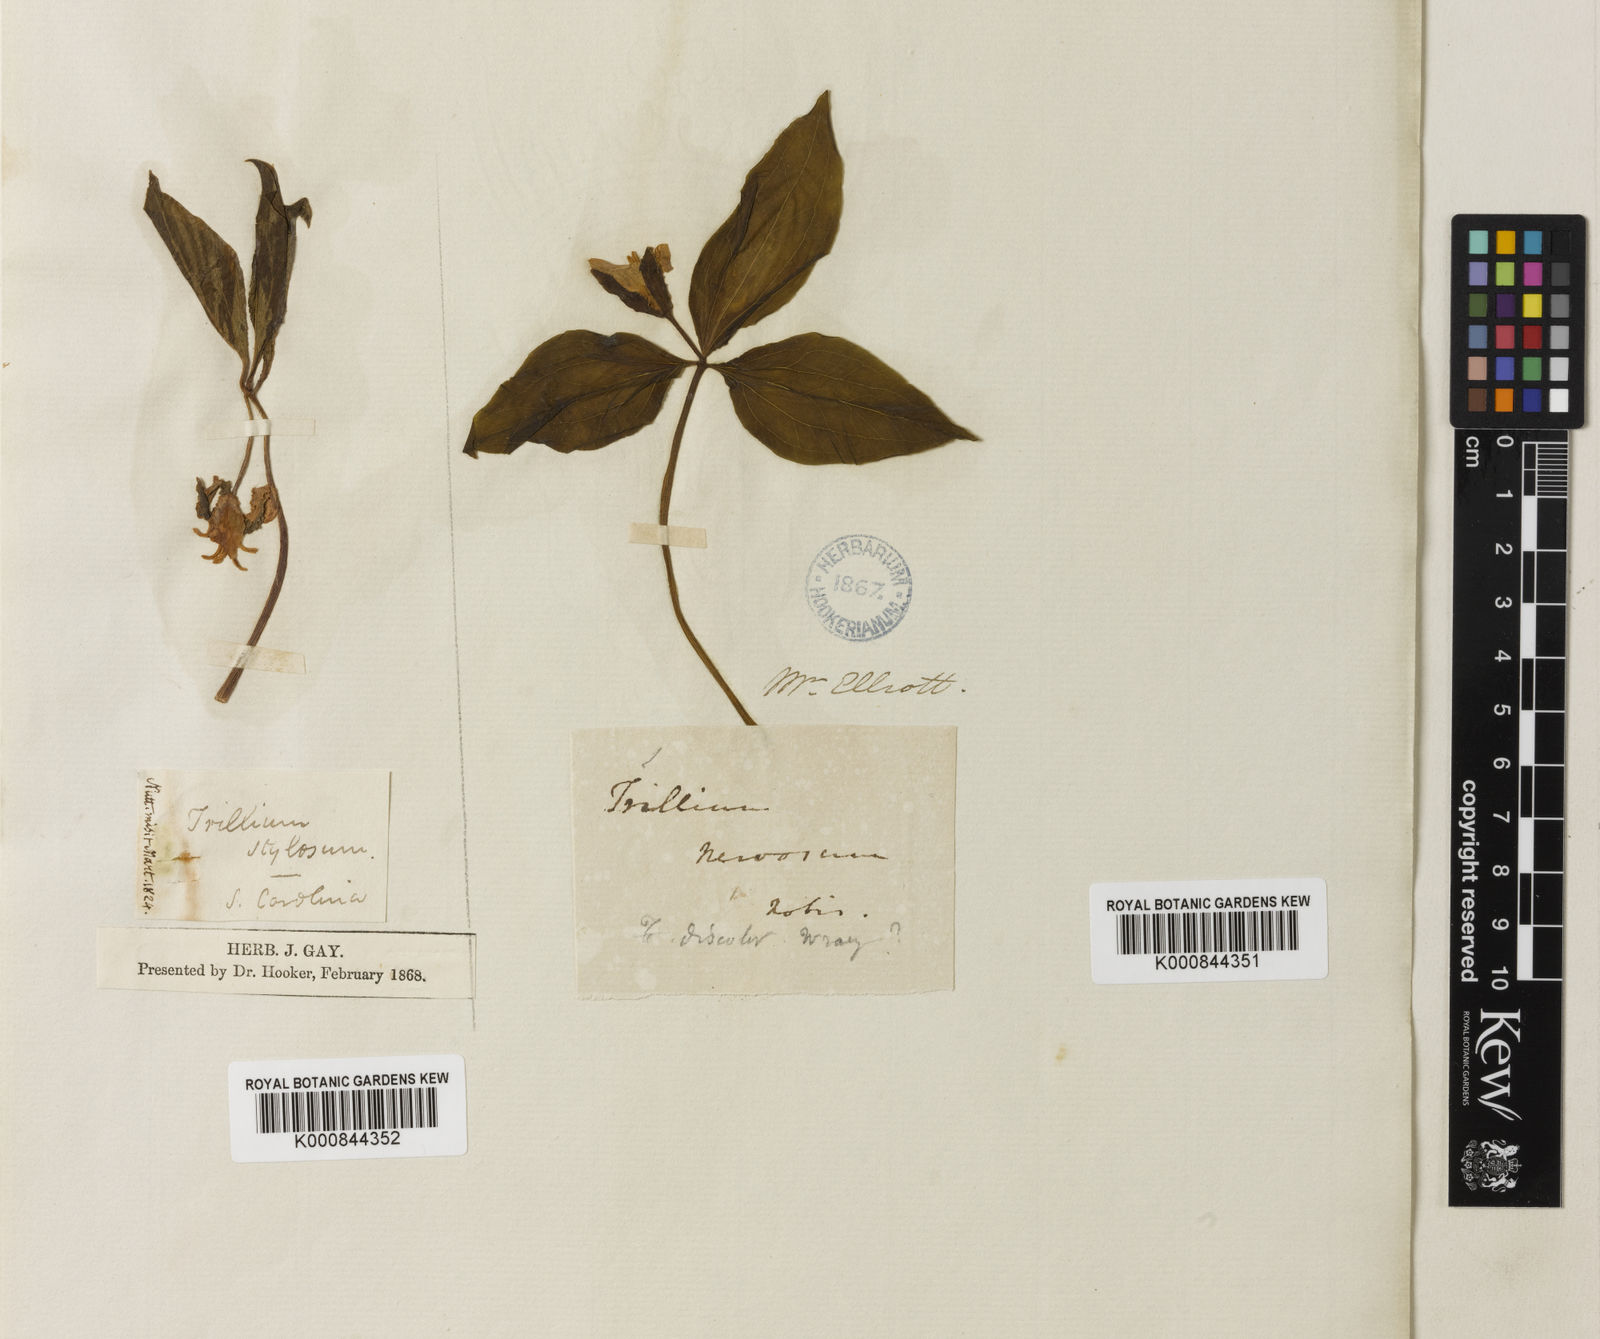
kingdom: Plantae
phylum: Tracheophyta
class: Liliopsida
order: Liliales
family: Melanthiaceae
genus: Trillium
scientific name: Trillium catesbaei
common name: Bashful trillium
